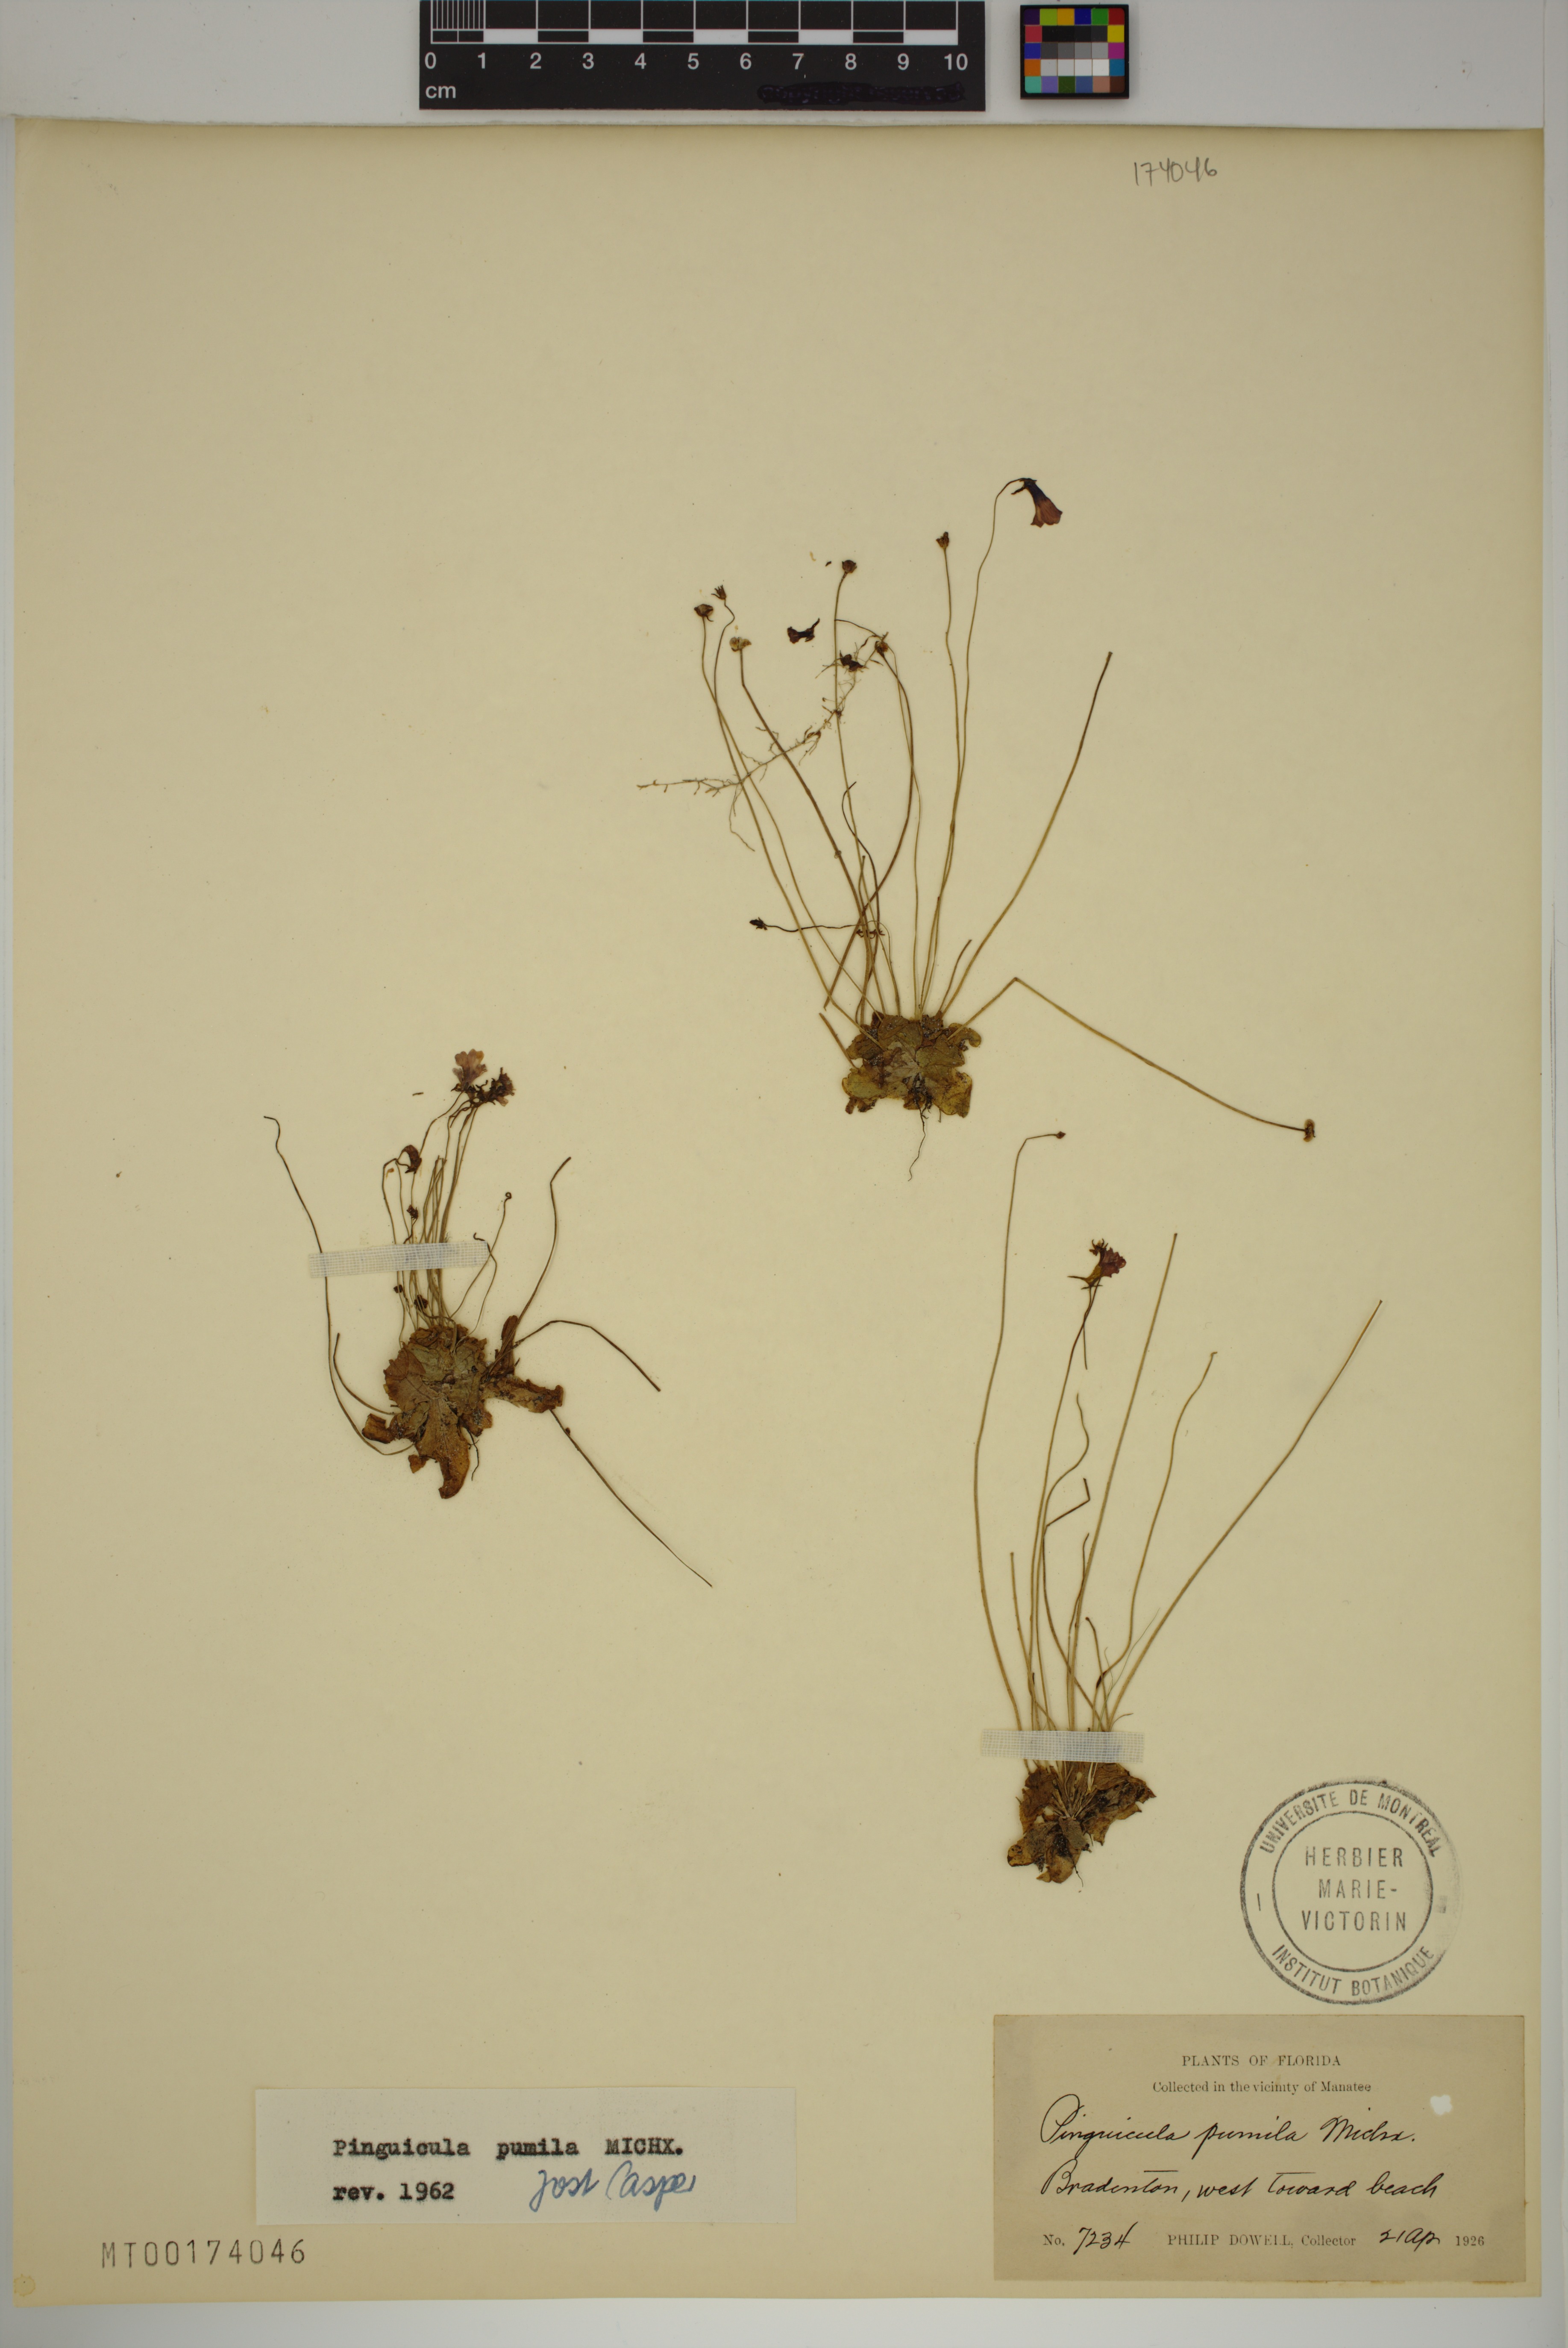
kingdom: Plantae
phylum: Tracheophyta
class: Magnoliopsida
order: Lamiales
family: Lentibulariaceae
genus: Pinguicula
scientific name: Pinguicula pumila
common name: Small butterwort
